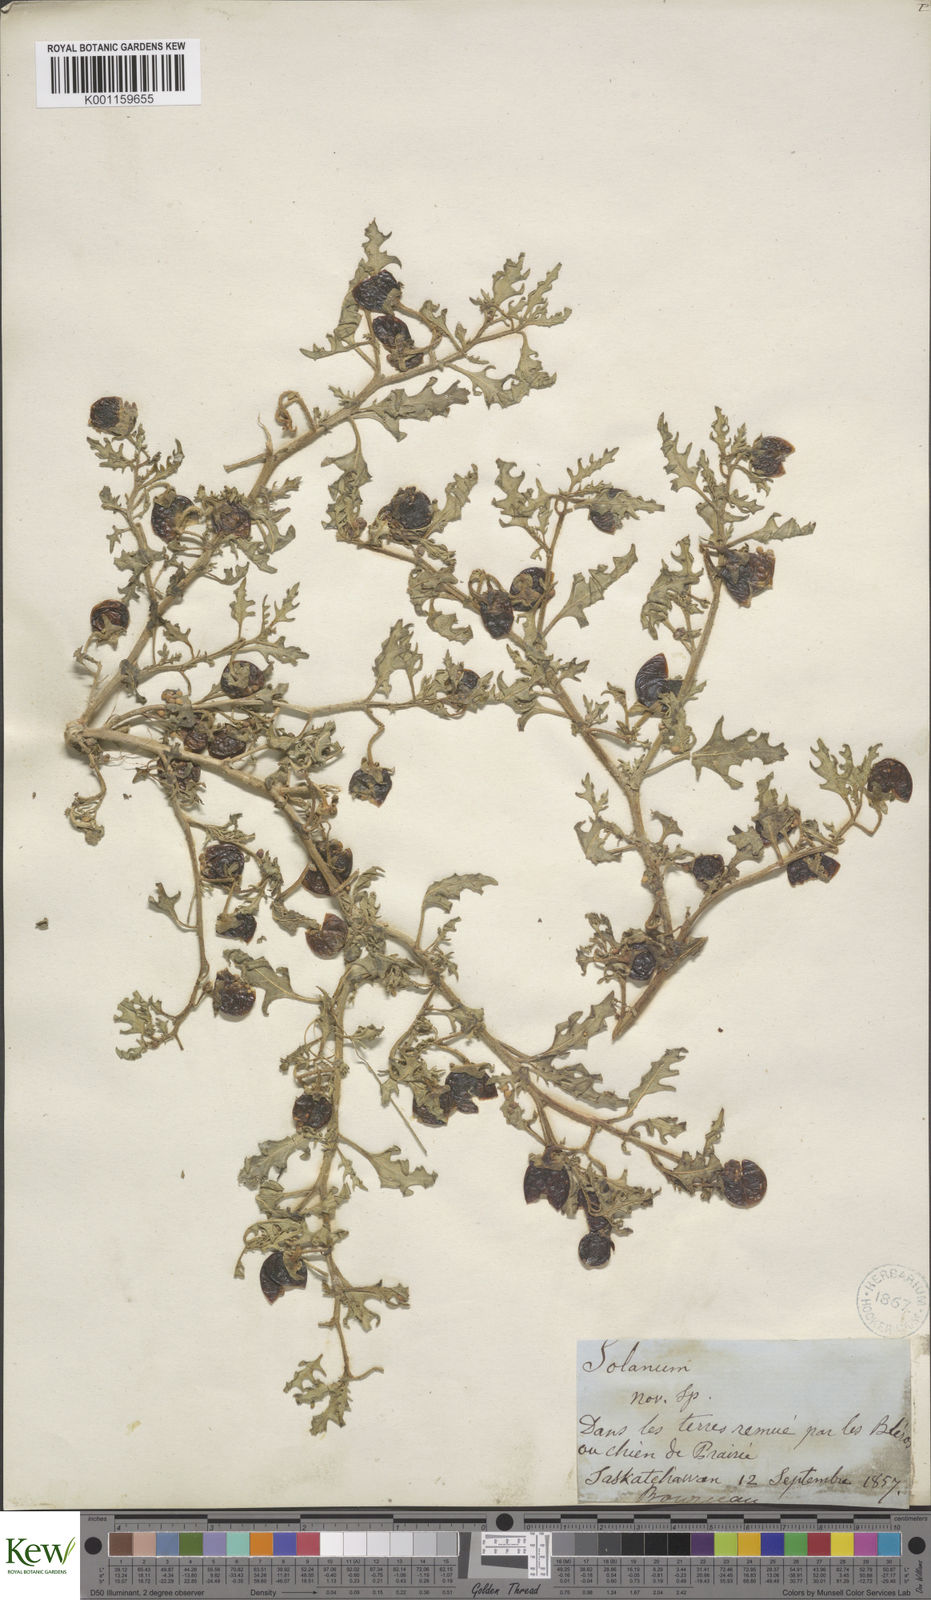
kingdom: Plantae
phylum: Tracheophyta
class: Magnoliopsida
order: Solanales
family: Solanaceae
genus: Solanum
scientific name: Solanum triflorum
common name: Small nightshade
